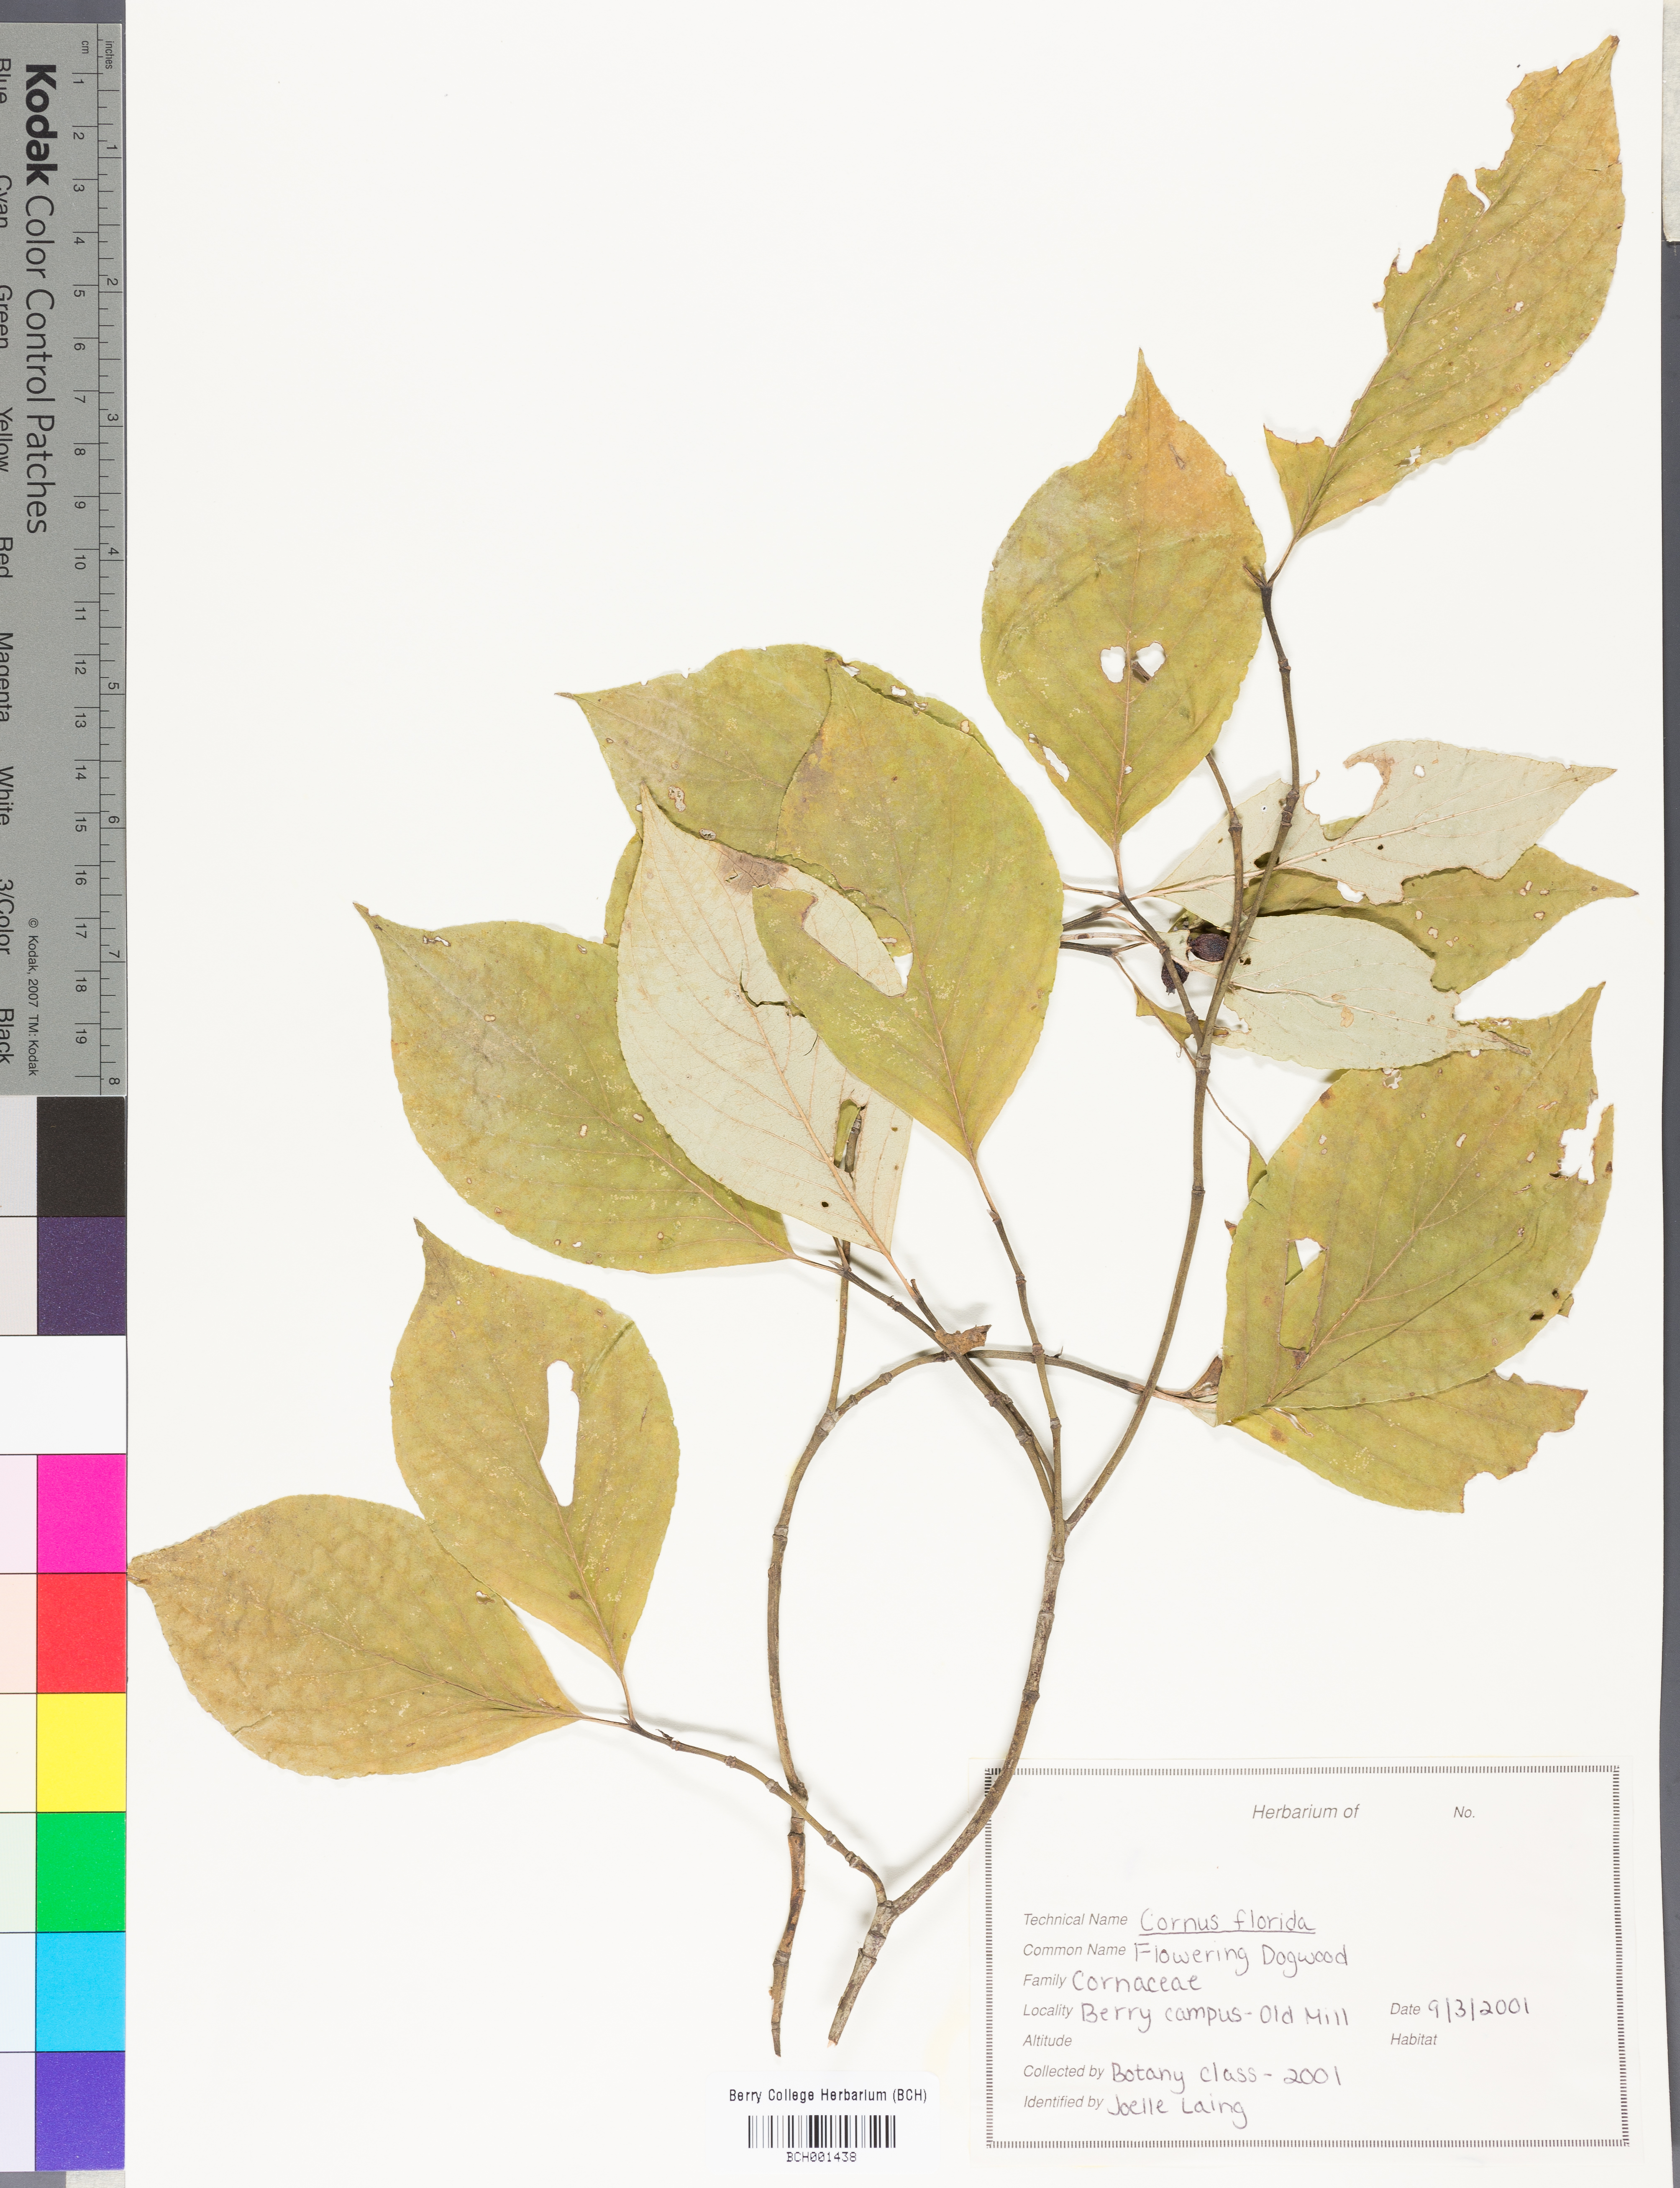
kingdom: Plantae
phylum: Tracheophyta
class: Magnoliopsida
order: Cornales
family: Cornaceae
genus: Cornus
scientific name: Cornus florida
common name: Flowering dogwood
